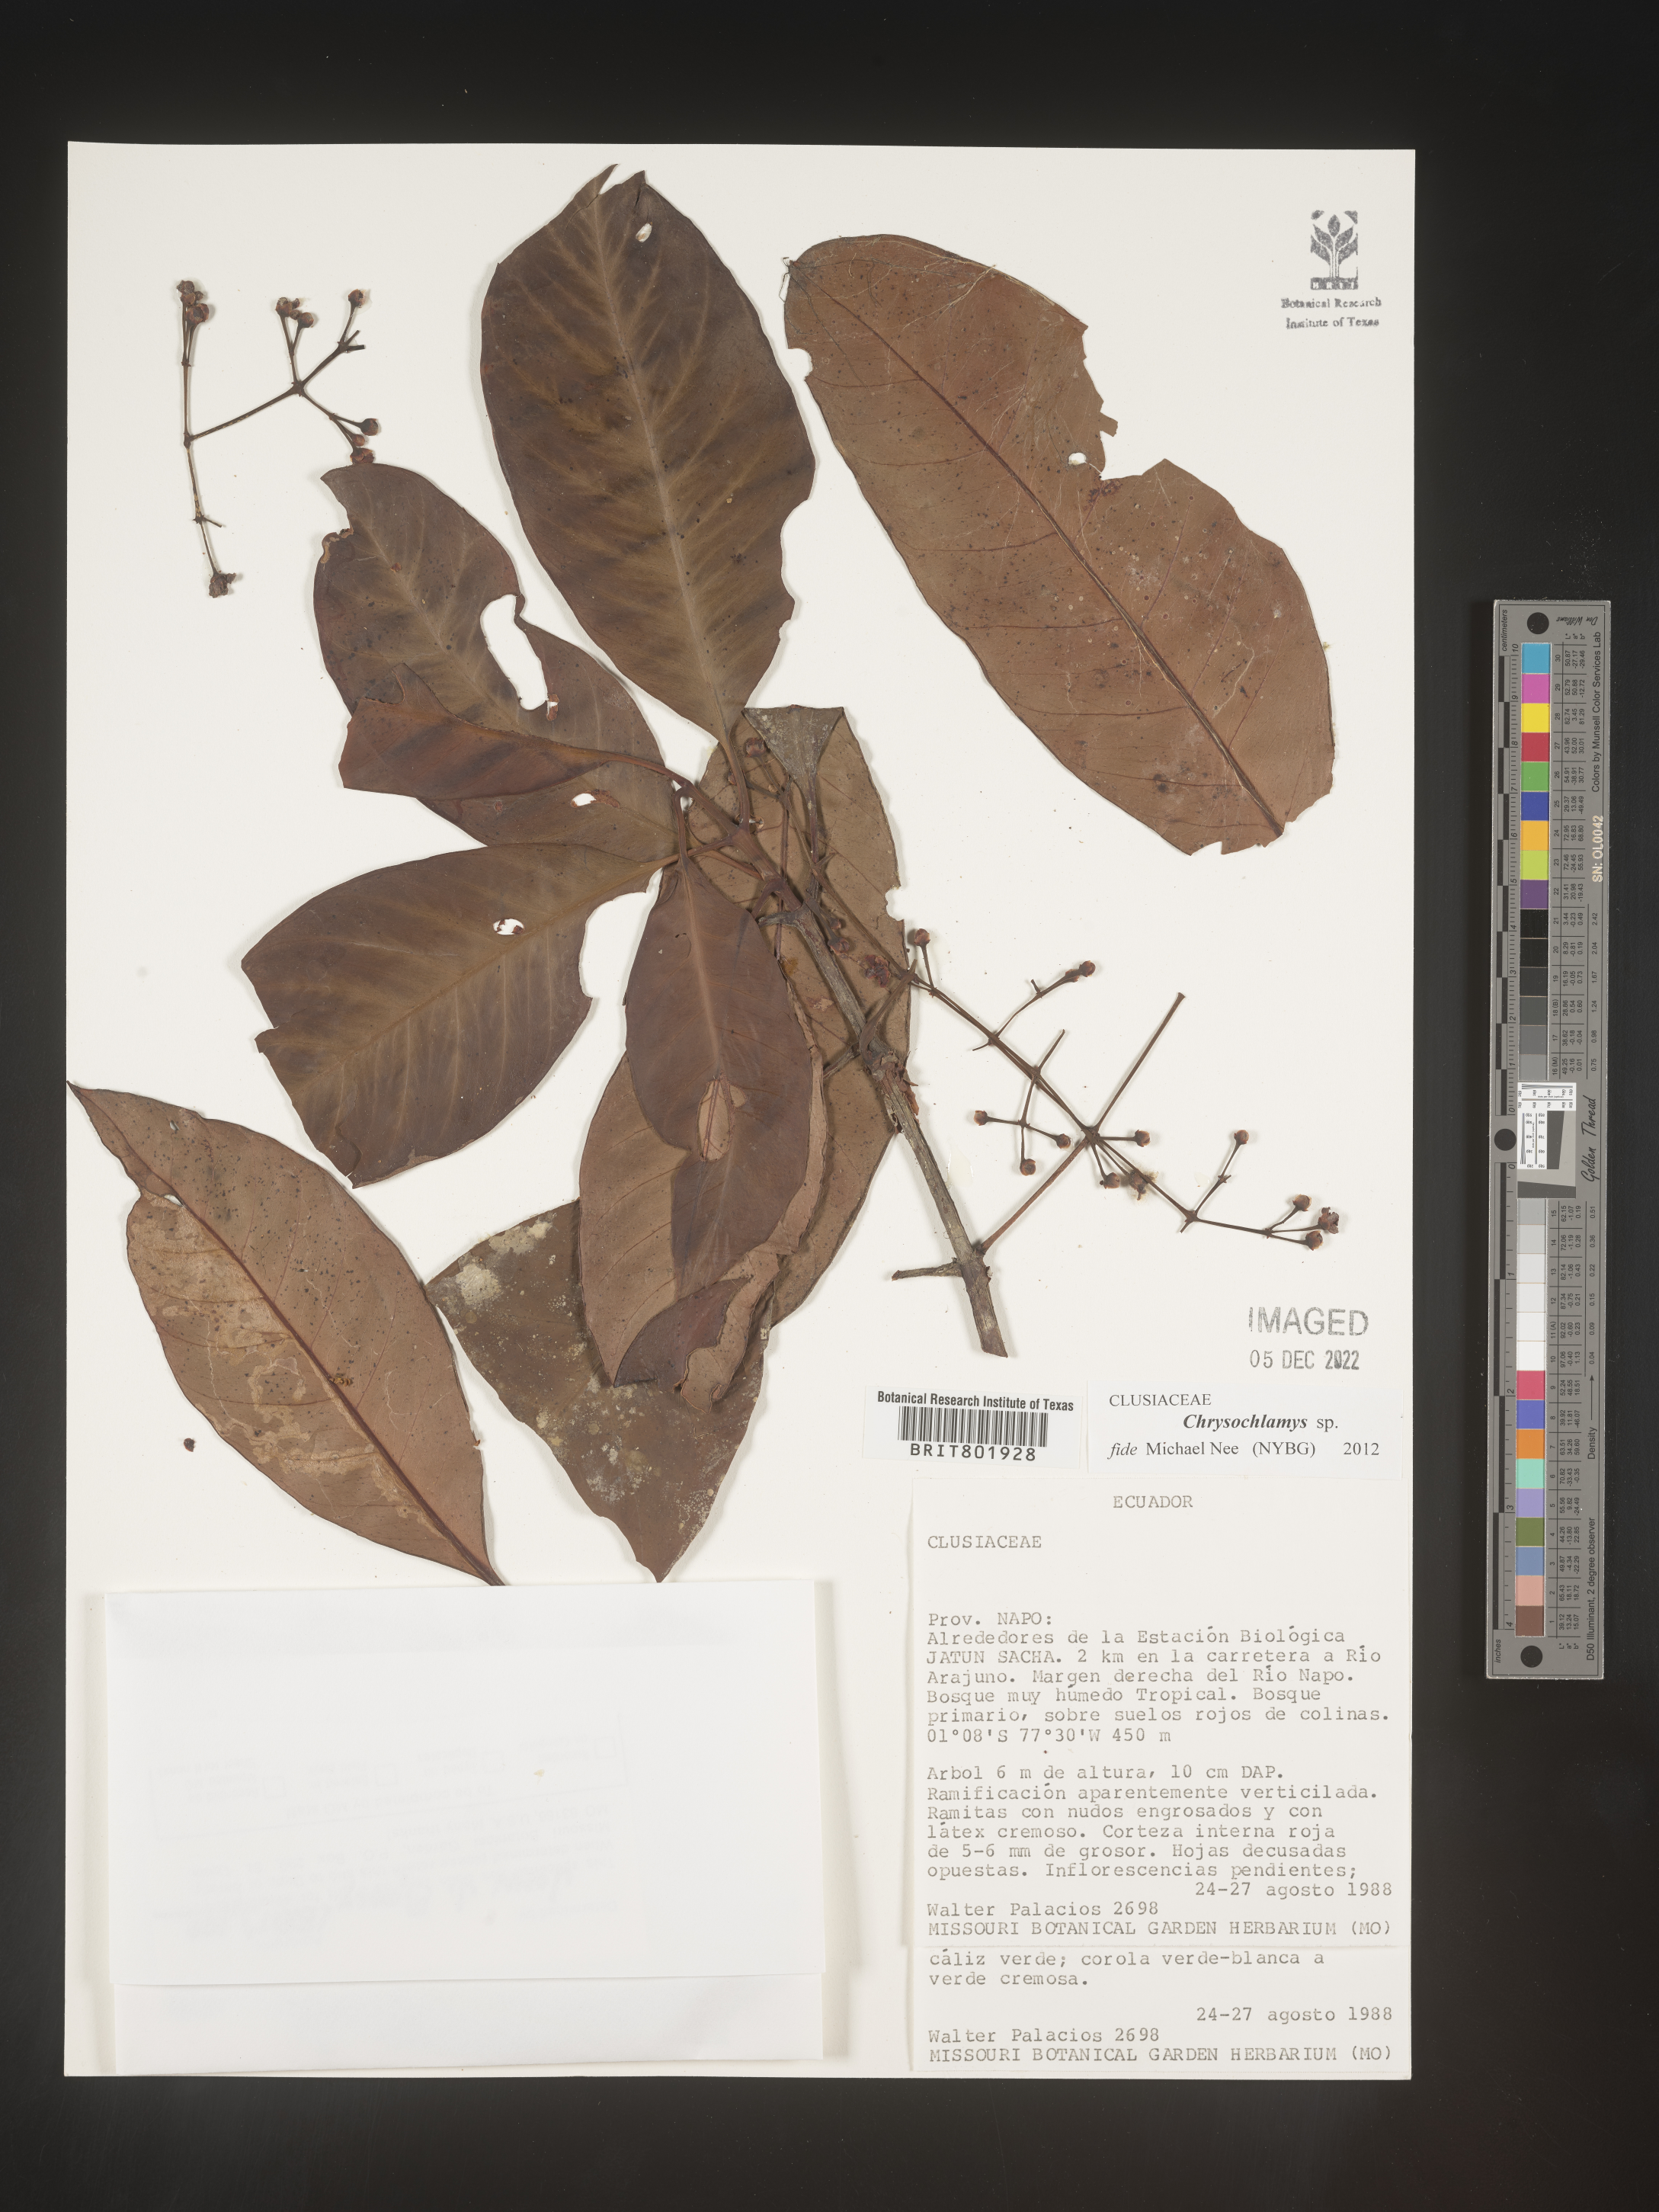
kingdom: Plantae
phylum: Tracheophyta
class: Magnoliopsida
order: Malpighiales
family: Clusiaceae
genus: Chrysochlamys
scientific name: Chrysochlamys
